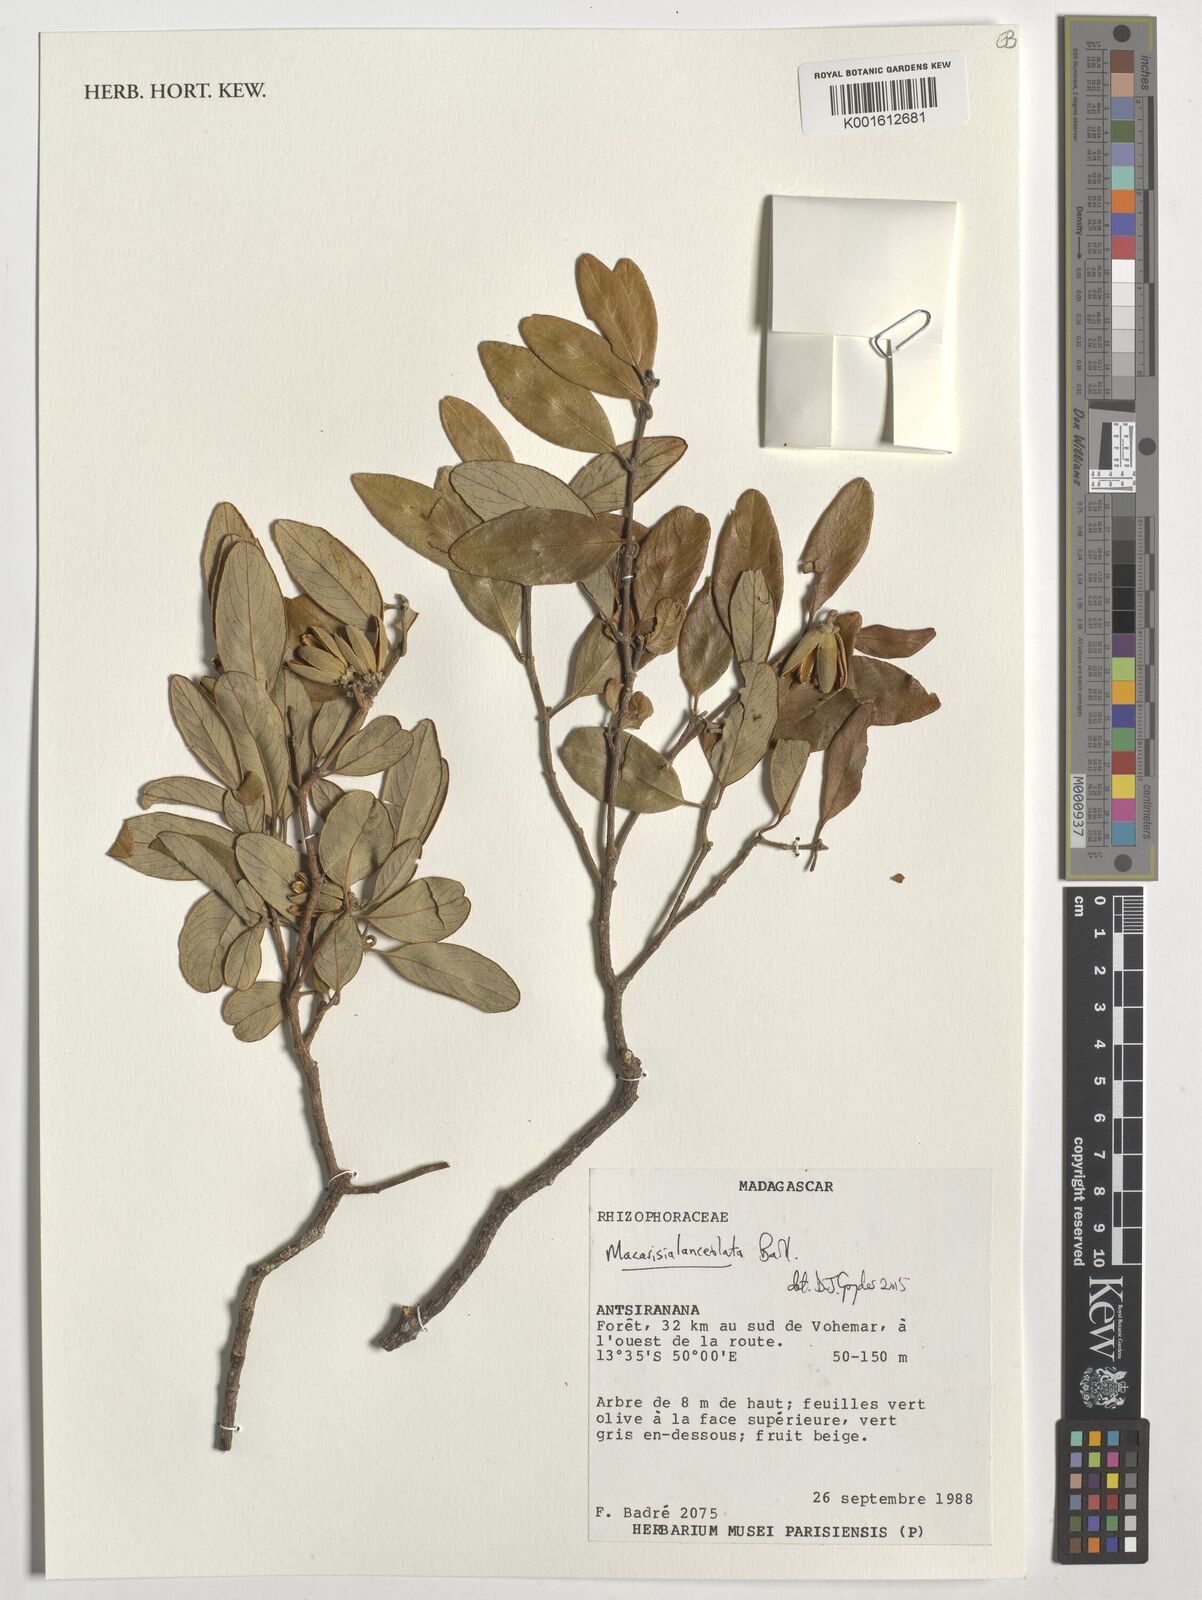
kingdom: Plantae
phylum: Tracheophyta
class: Magnoliopsida
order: Malpighiales
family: Rhizophoraceae
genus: Macarisia
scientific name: Macarisia lanceolata
